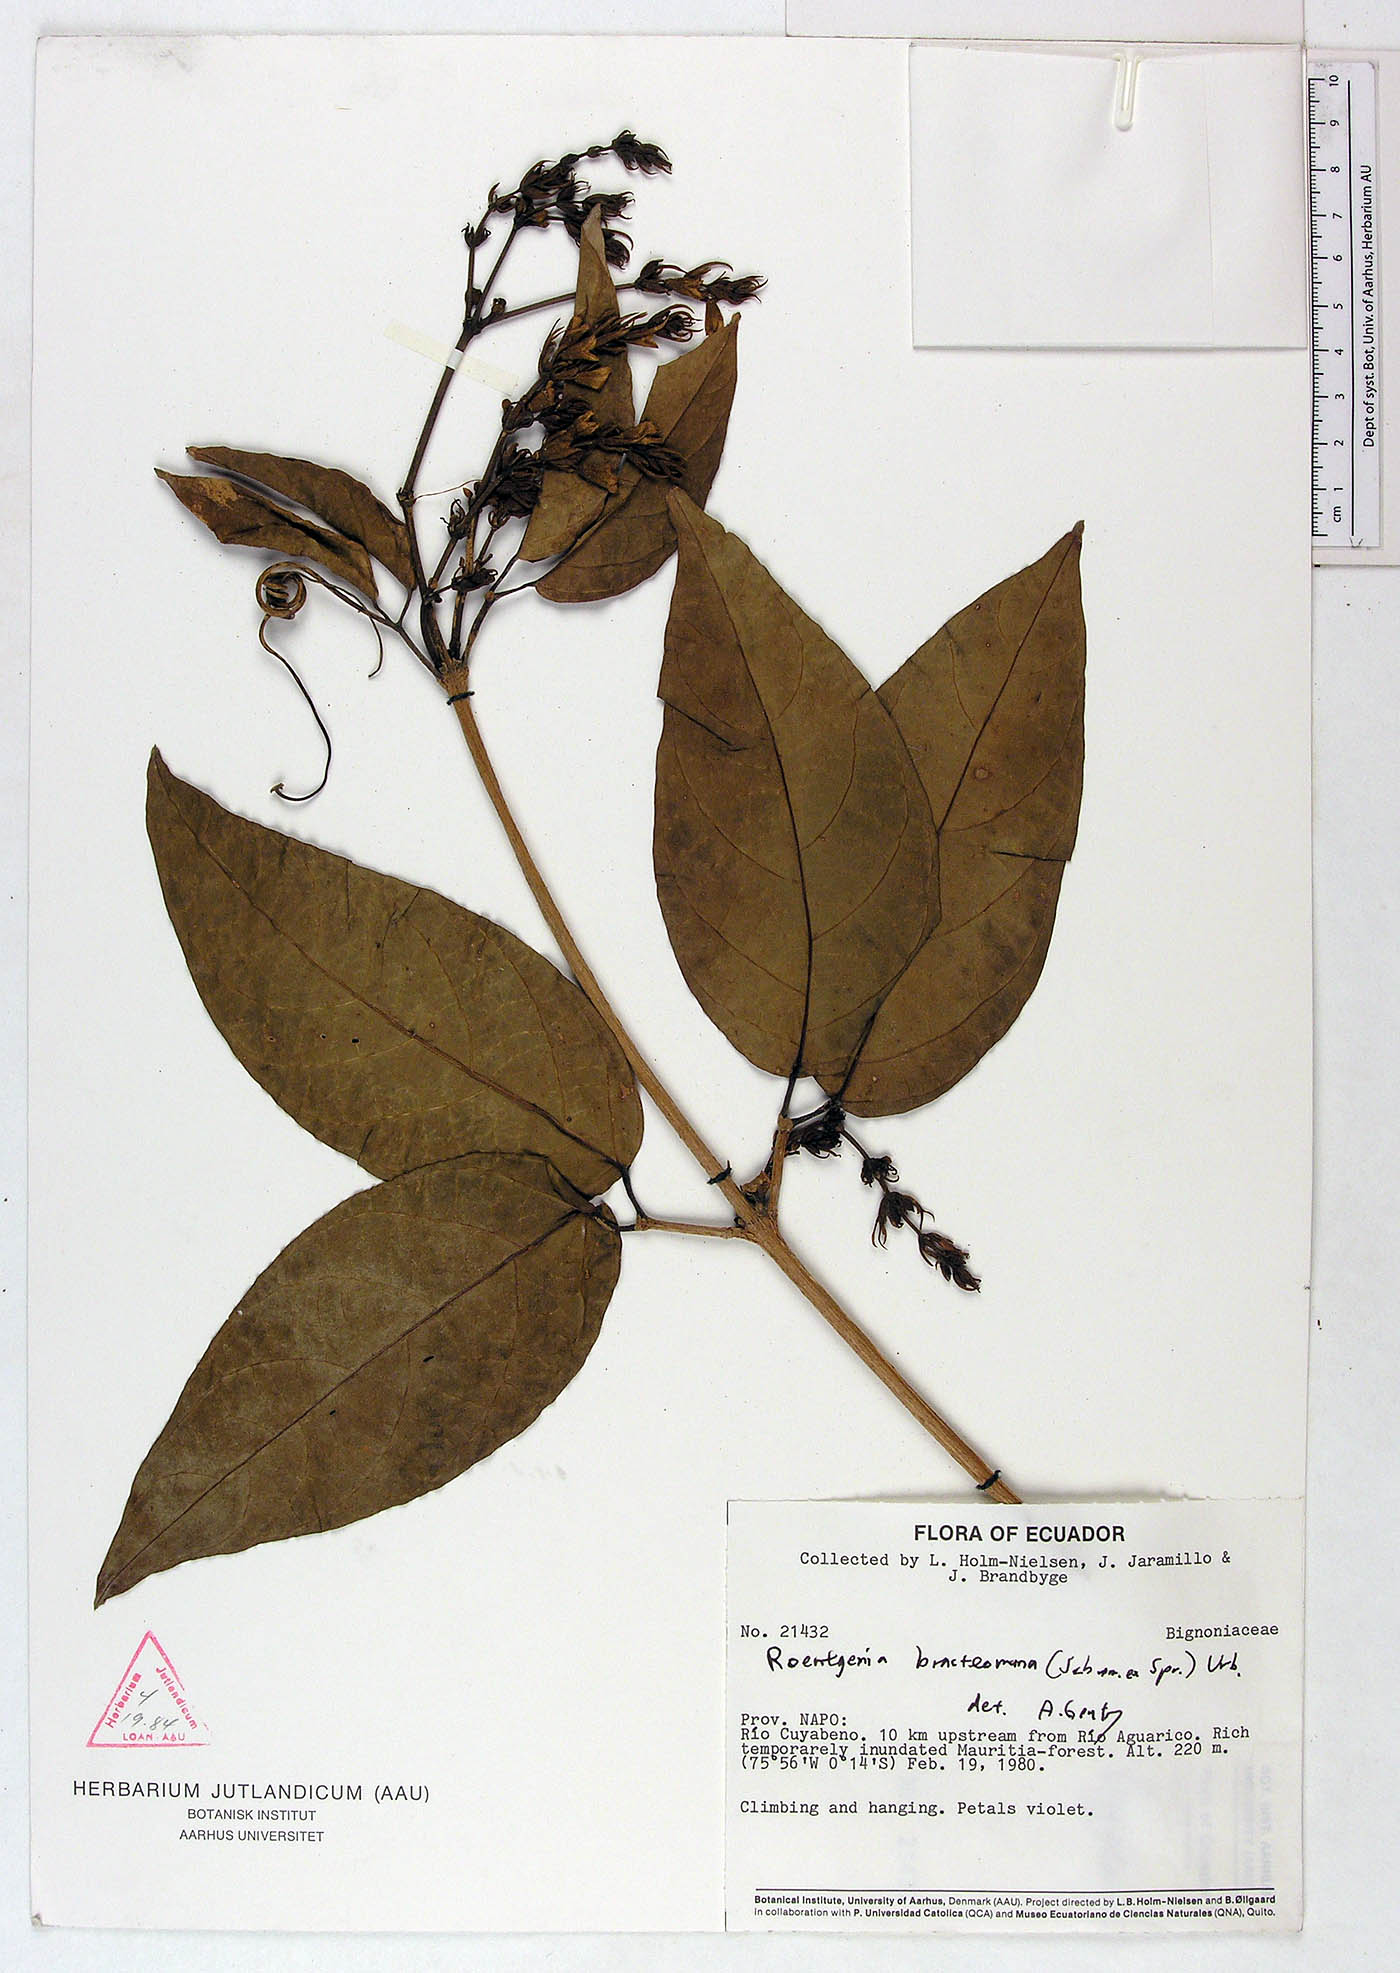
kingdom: Plantae
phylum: Tracheophyta
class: Magnoliopsida
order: Lamiales
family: Bignoniaceae
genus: Bignonia
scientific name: Bignonia bracteomana
